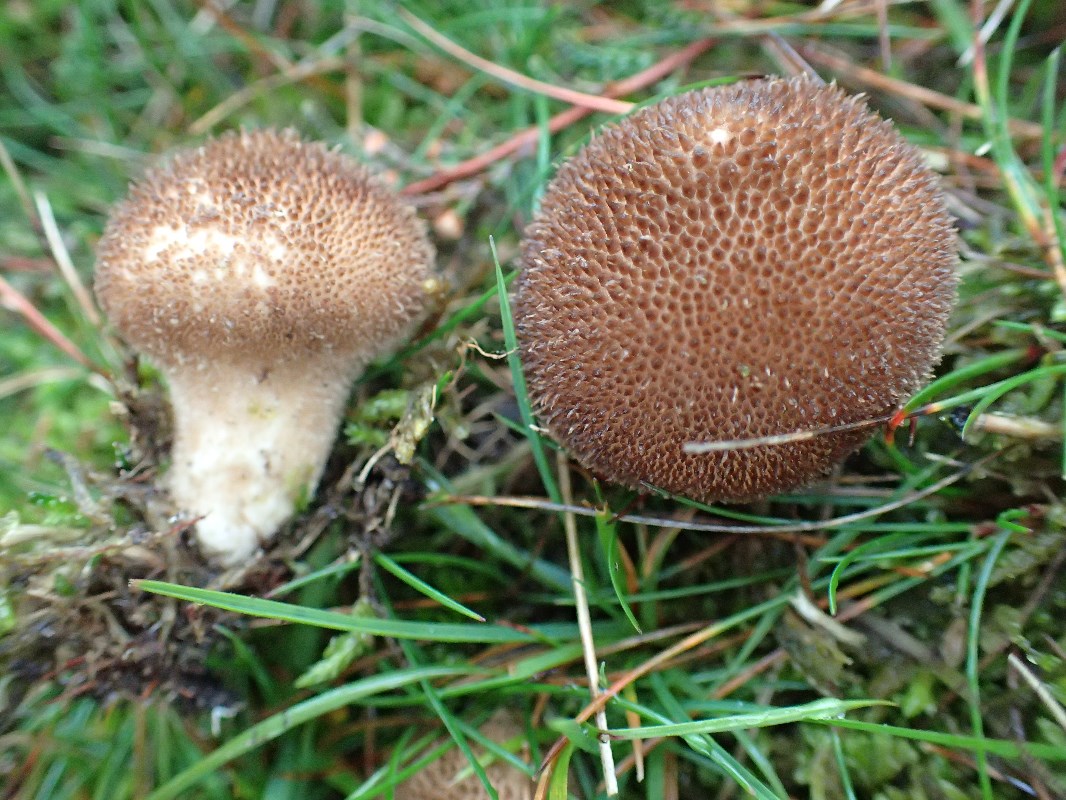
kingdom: Fungi
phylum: Basidiomycota
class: Agaricomycetes
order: Agaricales
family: Lycoperdaceae
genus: Lycoperdon
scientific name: Lycoperdon nigrescens
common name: sortagtig støvbold
